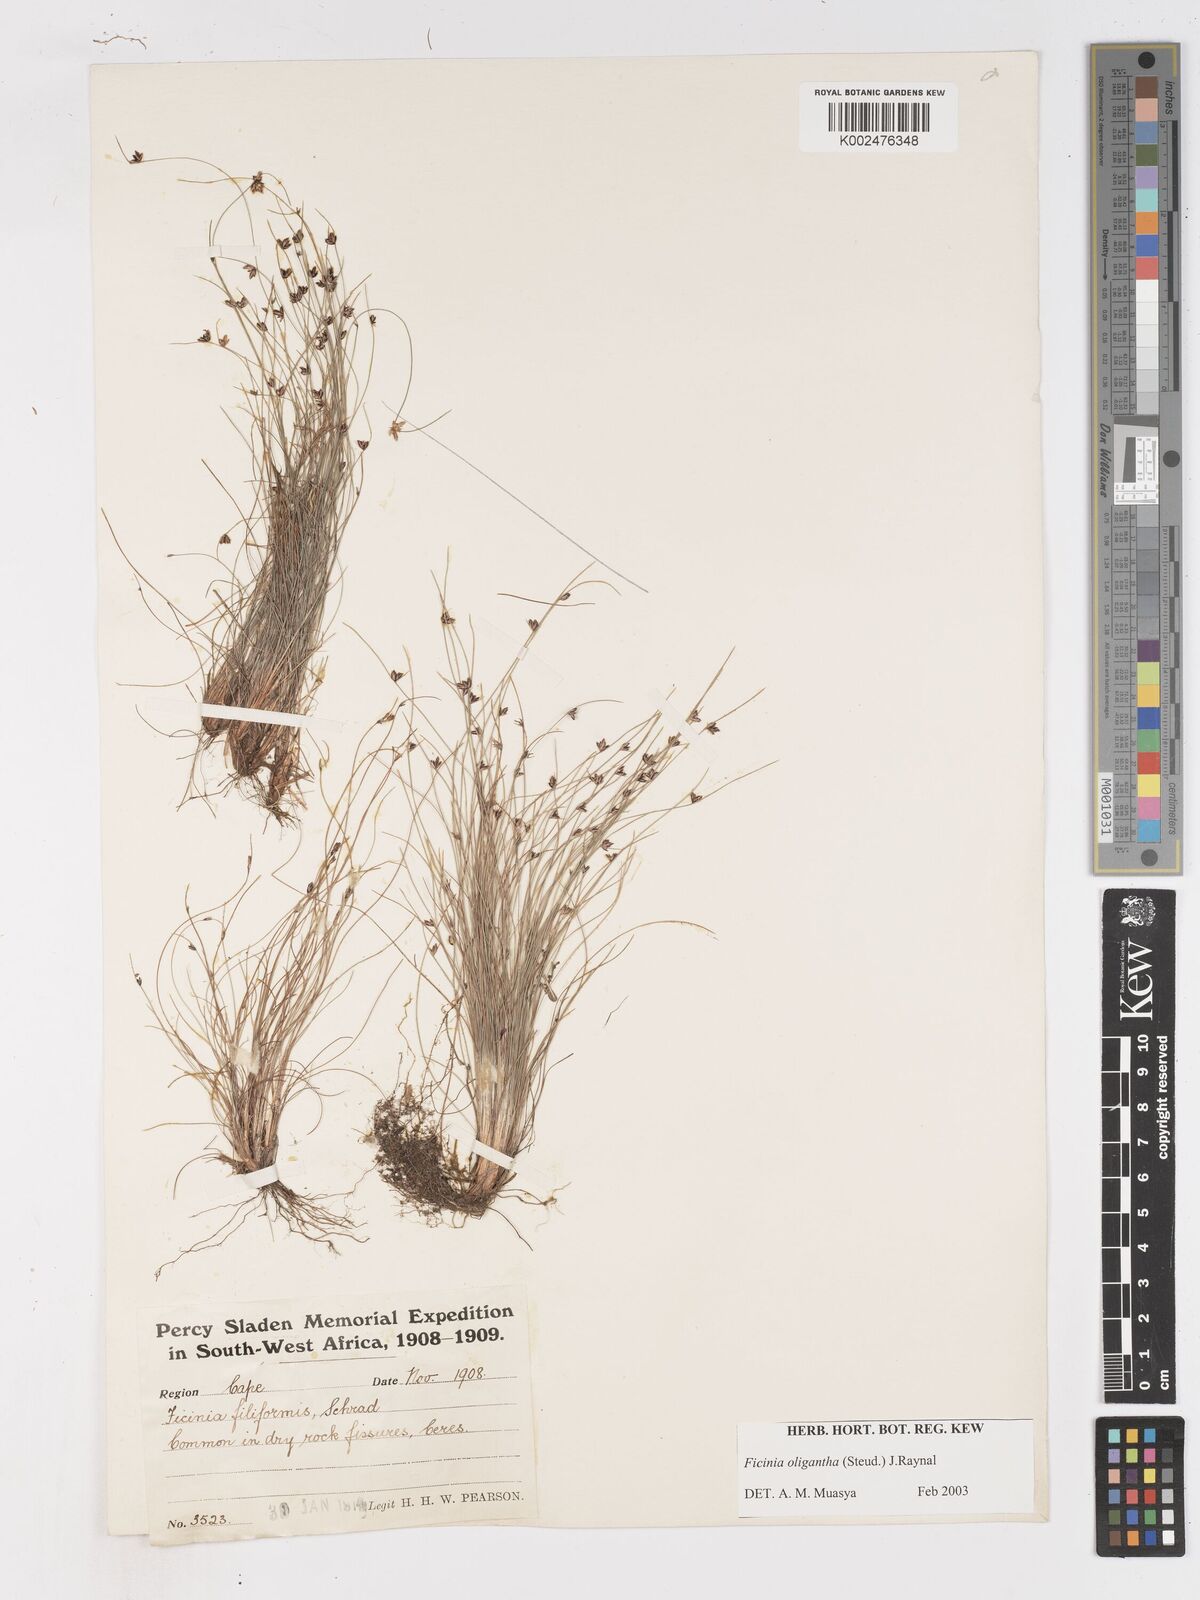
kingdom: Plantae
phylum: Tracheophyta
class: Liliopsida
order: Poales
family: Cyperaceae
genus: Ficinia
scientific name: Ficinia oligantha
